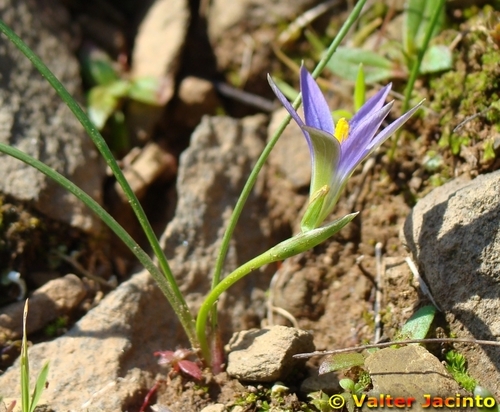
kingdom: Plantae
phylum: Tracheophyta
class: Liliopsida
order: Asparagales
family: Iridaceae
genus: Romulea
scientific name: Romulea ramiflora
